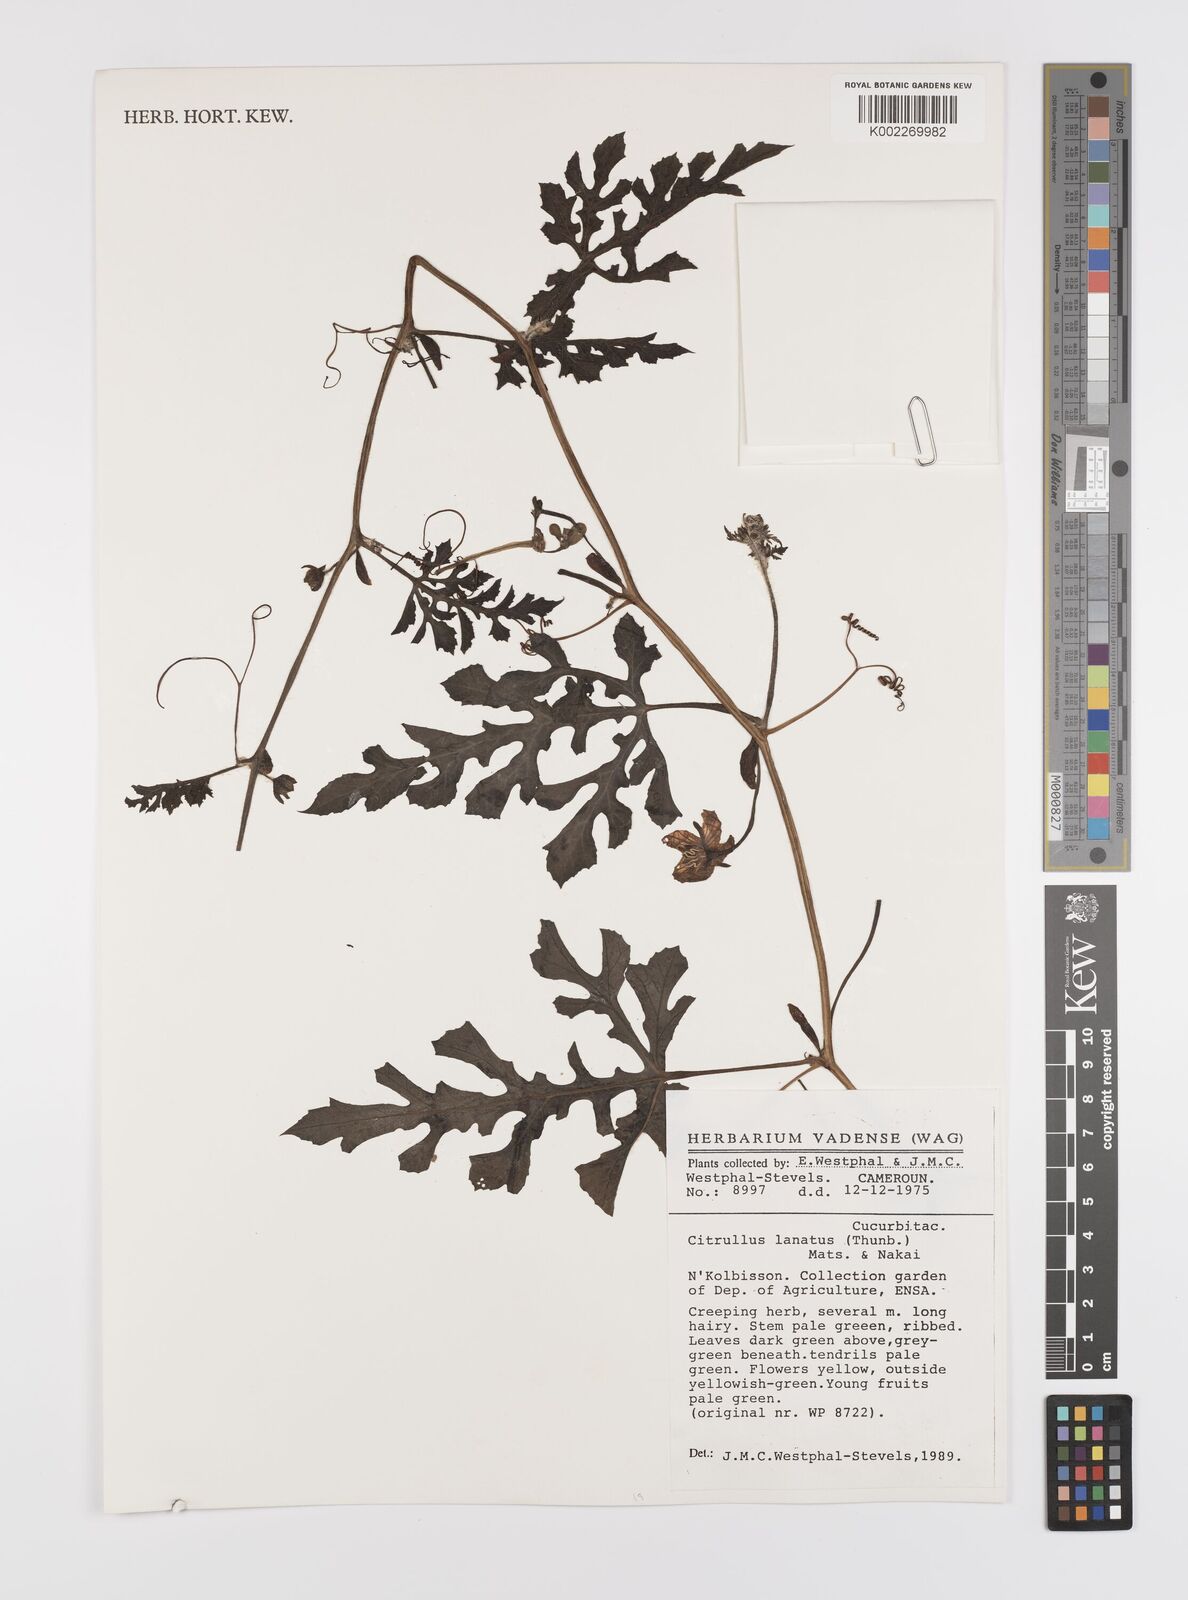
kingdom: Plantae
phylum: Tracheophyta
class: Magnoliopsida
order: Cucurbitales
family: Cucurbitaceae
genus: Citrullus
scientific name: Citrullus lanatus
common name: Watermelon
